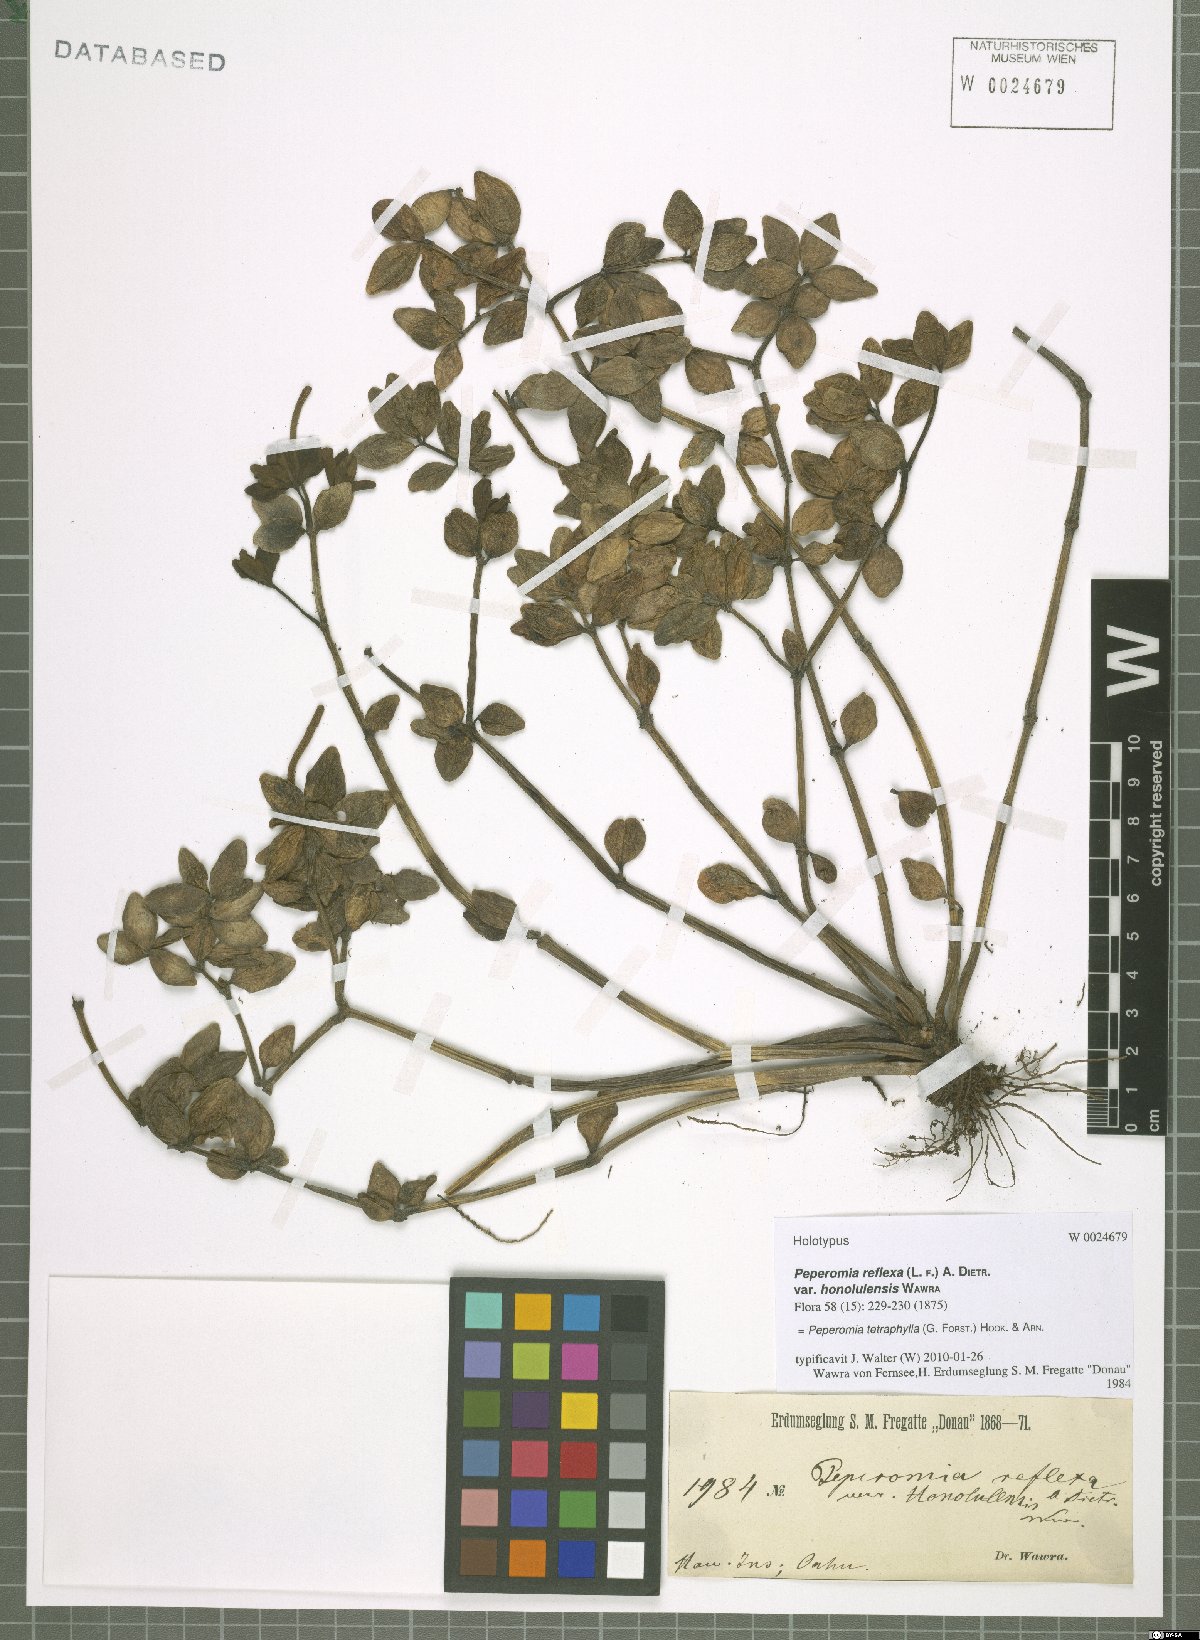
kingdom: Plantae
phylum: Tracheophyta
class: Magnoliopsida
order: Piperales
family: Piperaceae
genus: Peperomia
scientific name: Peperomia tetraphylla
